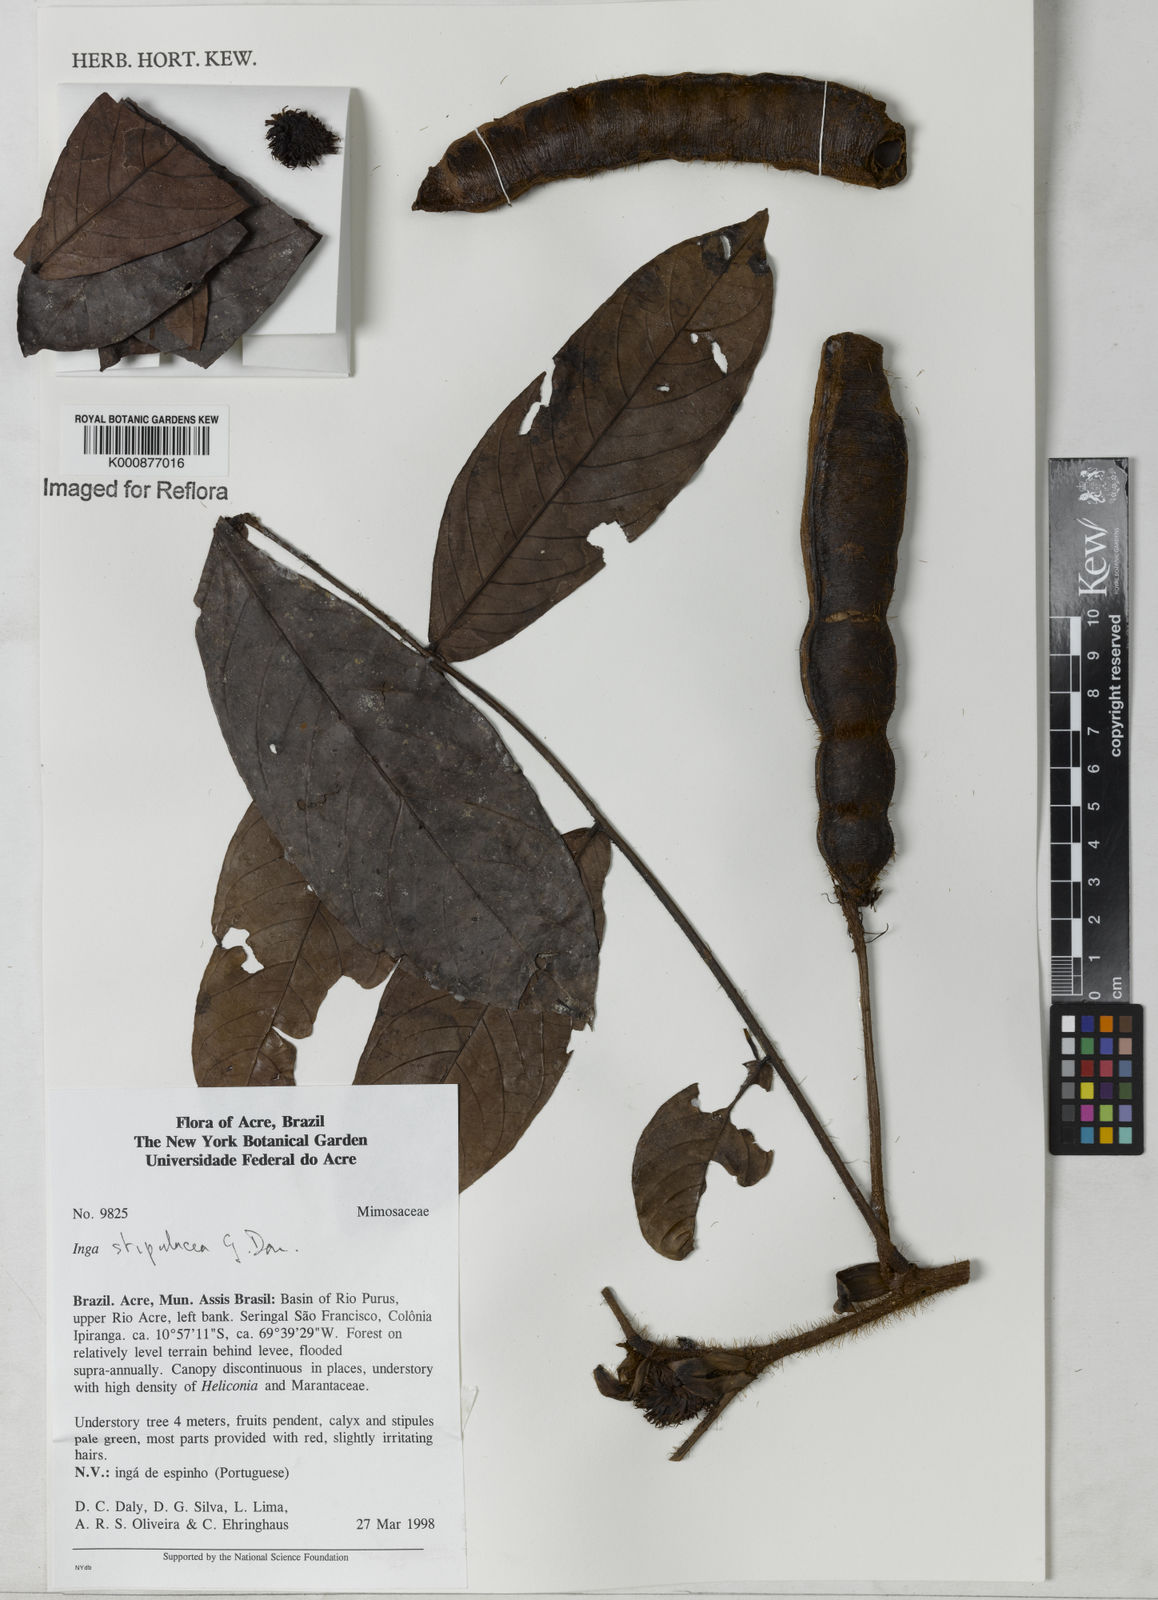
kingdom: Plantae
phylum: Tracheophyta
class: Magnoliopsida
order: Fabales
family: Fabaceae
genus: Inga
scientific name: Inga stipulacea
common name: Stipulate inga
